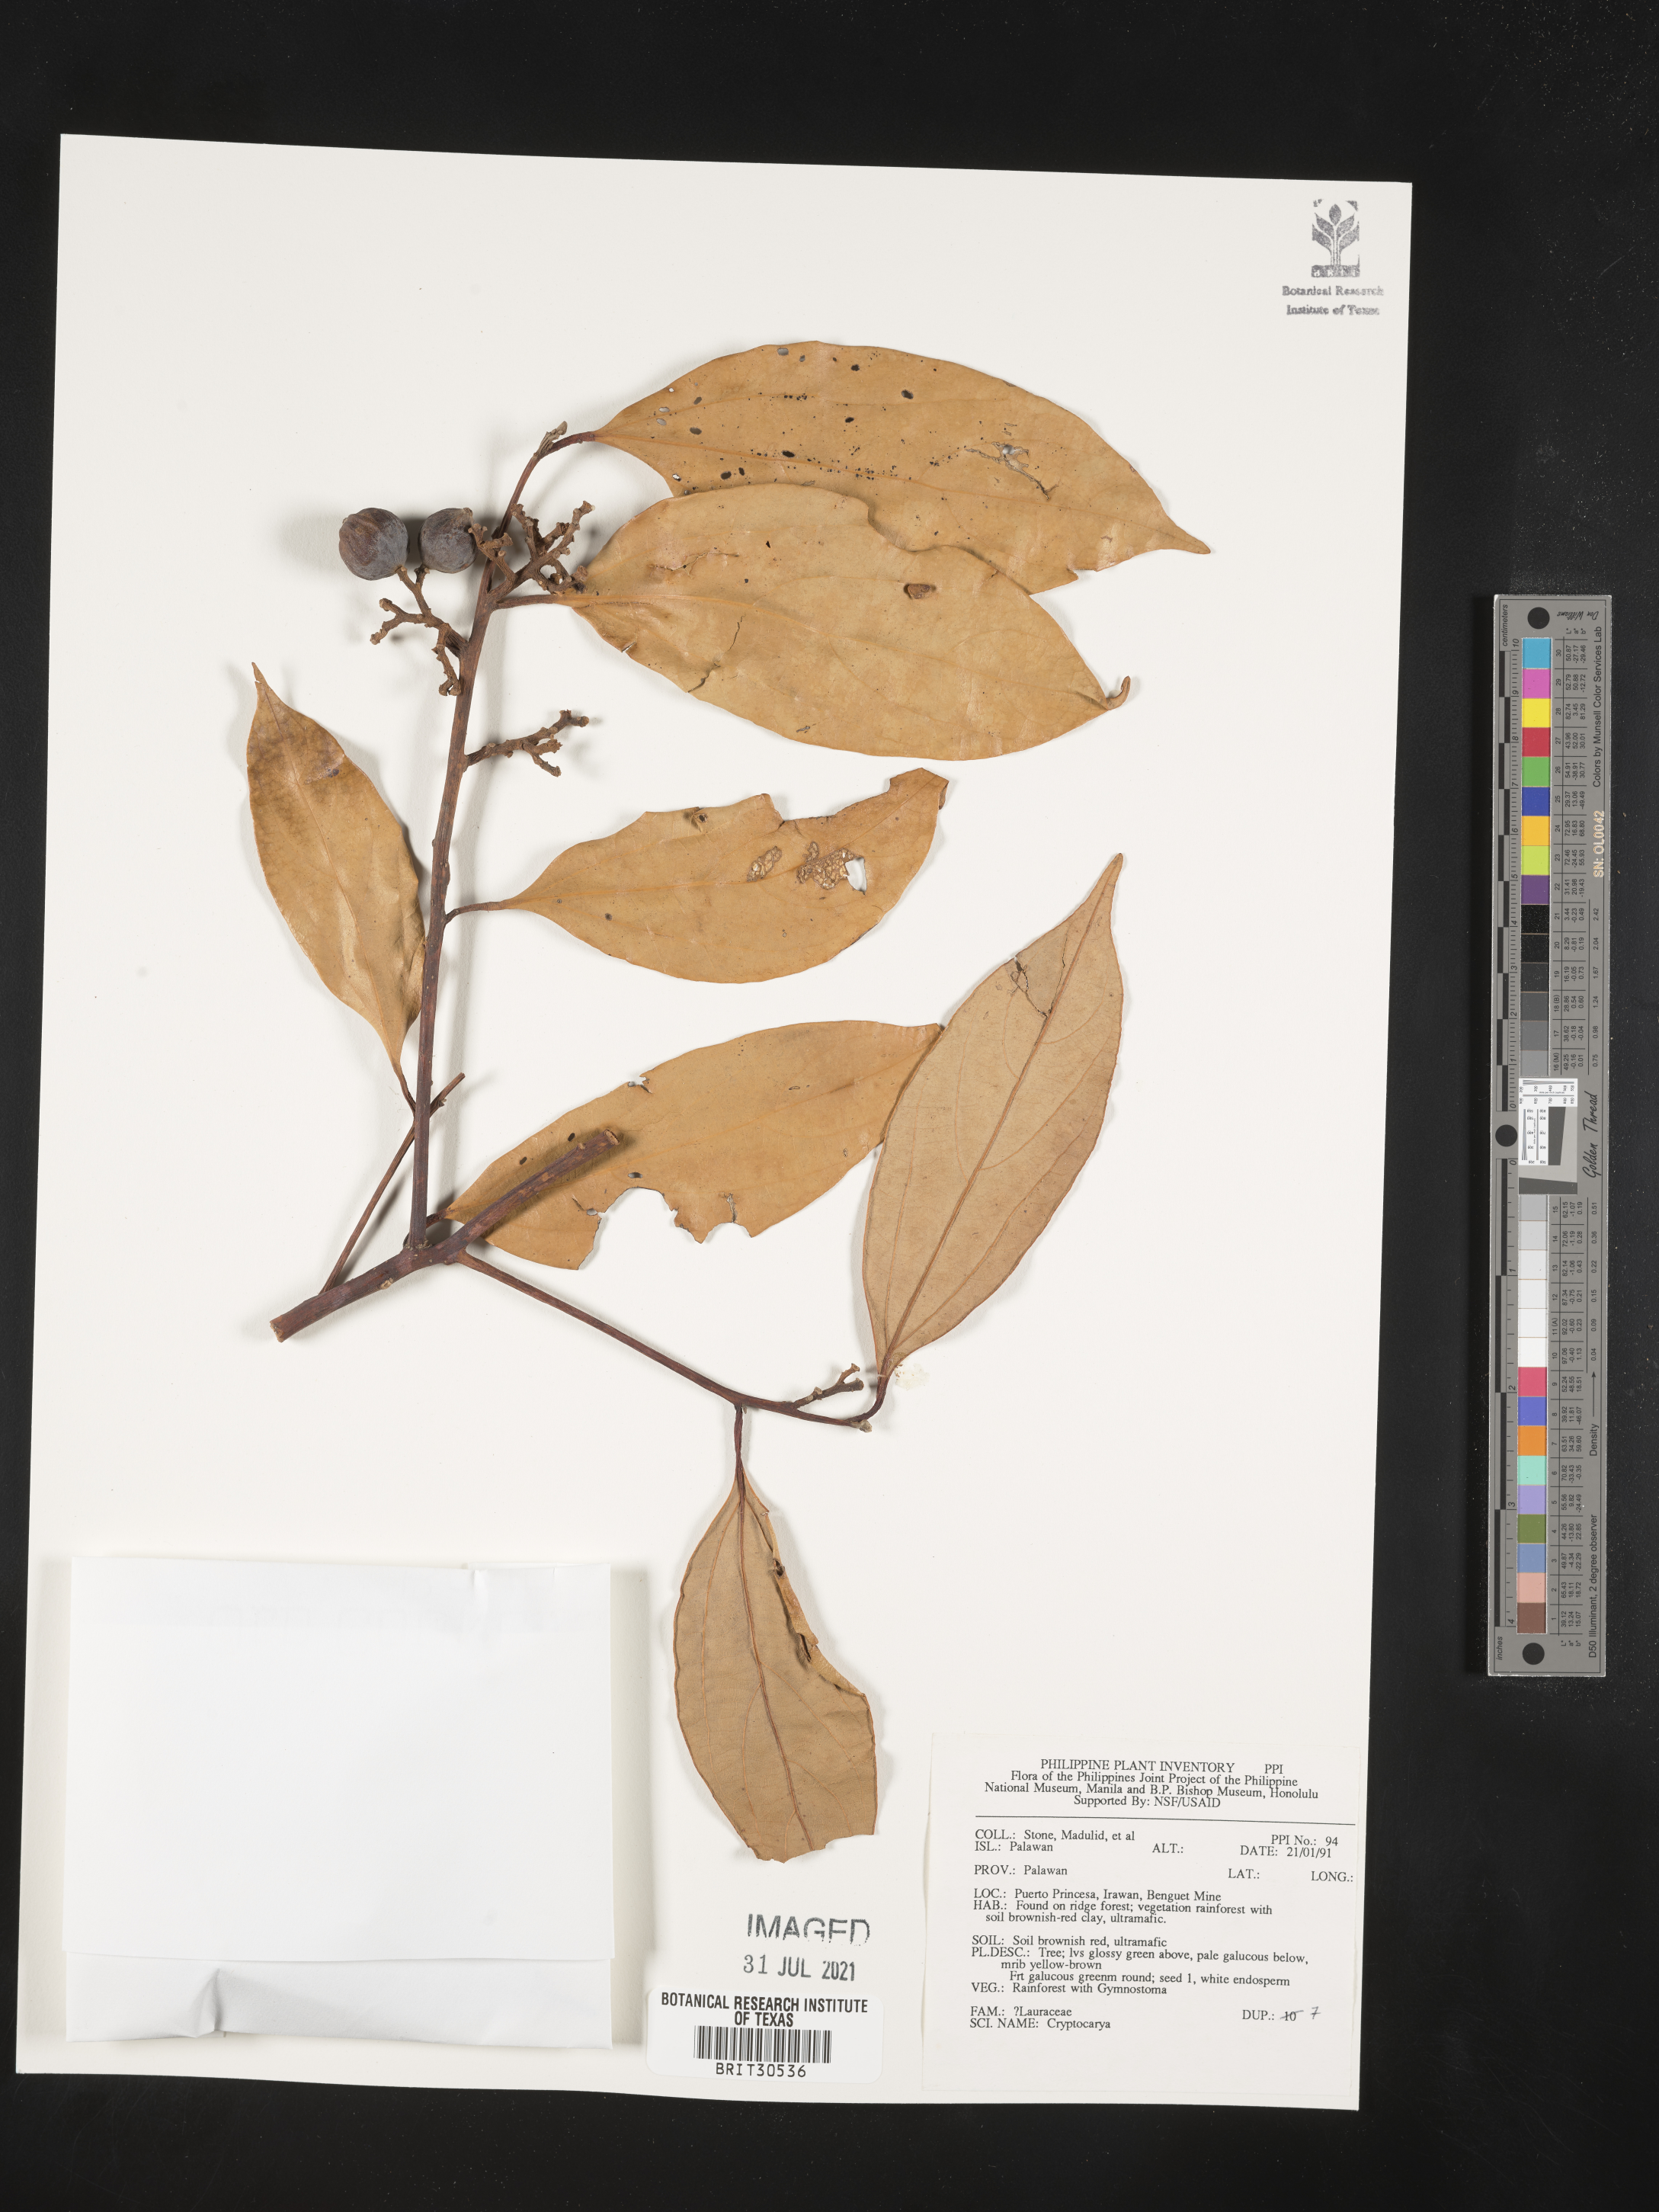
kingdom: Plantae
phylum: Tracheophyta
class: Magnoliopsida
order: Laurales
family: Lauraceae
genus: Cryptocarya
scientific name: Cryptocarya
